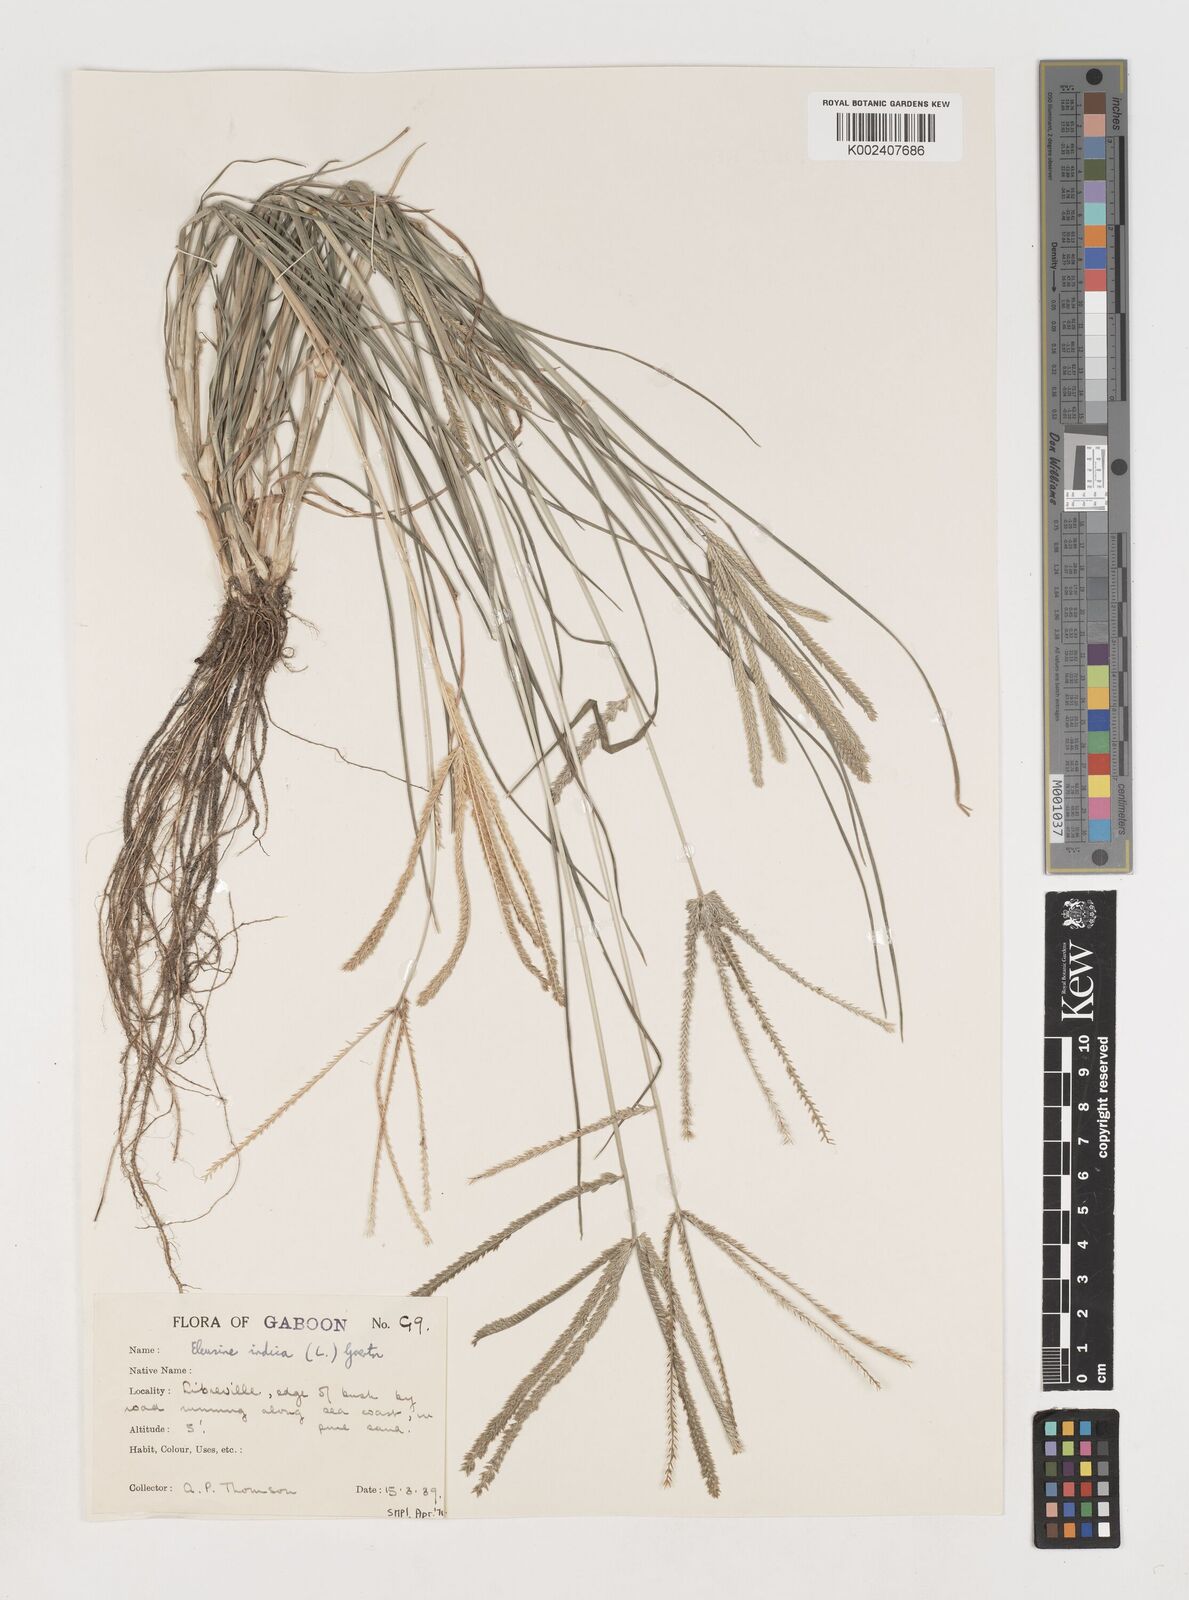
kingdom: Plantae
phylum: Tracheophyta
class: Liliopsida
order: Poales
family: Poaceae
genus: Eleusine
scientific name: Eleusine indica
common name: Yard-grass
